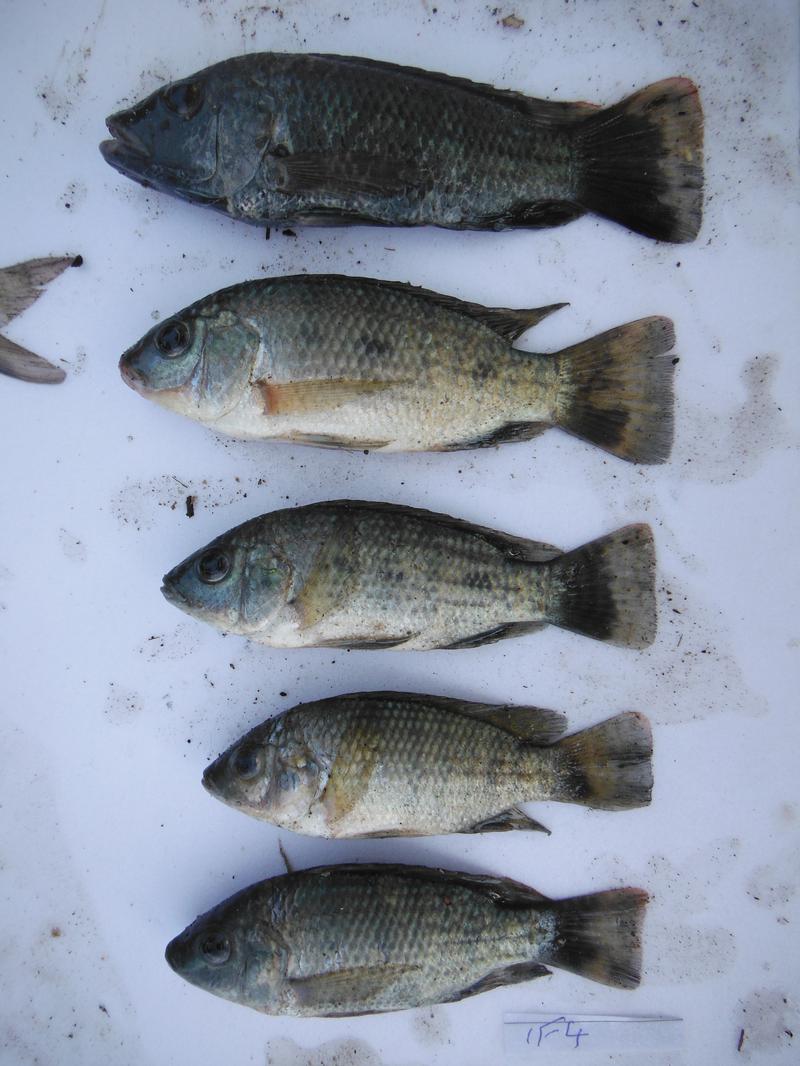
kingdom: Animalia
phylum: Chordata
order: Perciformes
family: Cichlidae
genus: Oreochromis
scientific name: Oreochromis urolepis
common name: Wami tilapia
